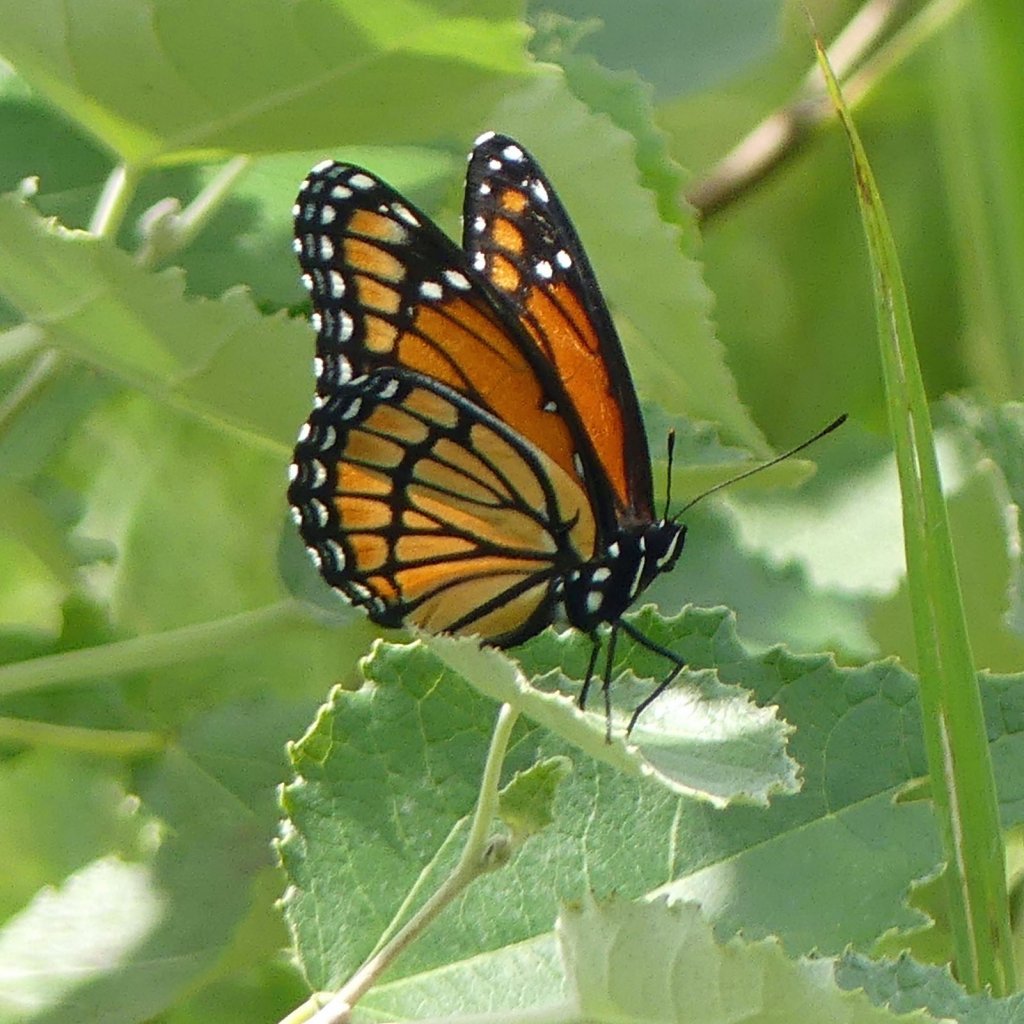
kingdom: Animalia
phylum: Arthropoda
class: Insecta
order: Lepidoptera
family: Nymphalidae
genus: Limenitis
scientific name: Limenitis archippus
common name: Viceroy
